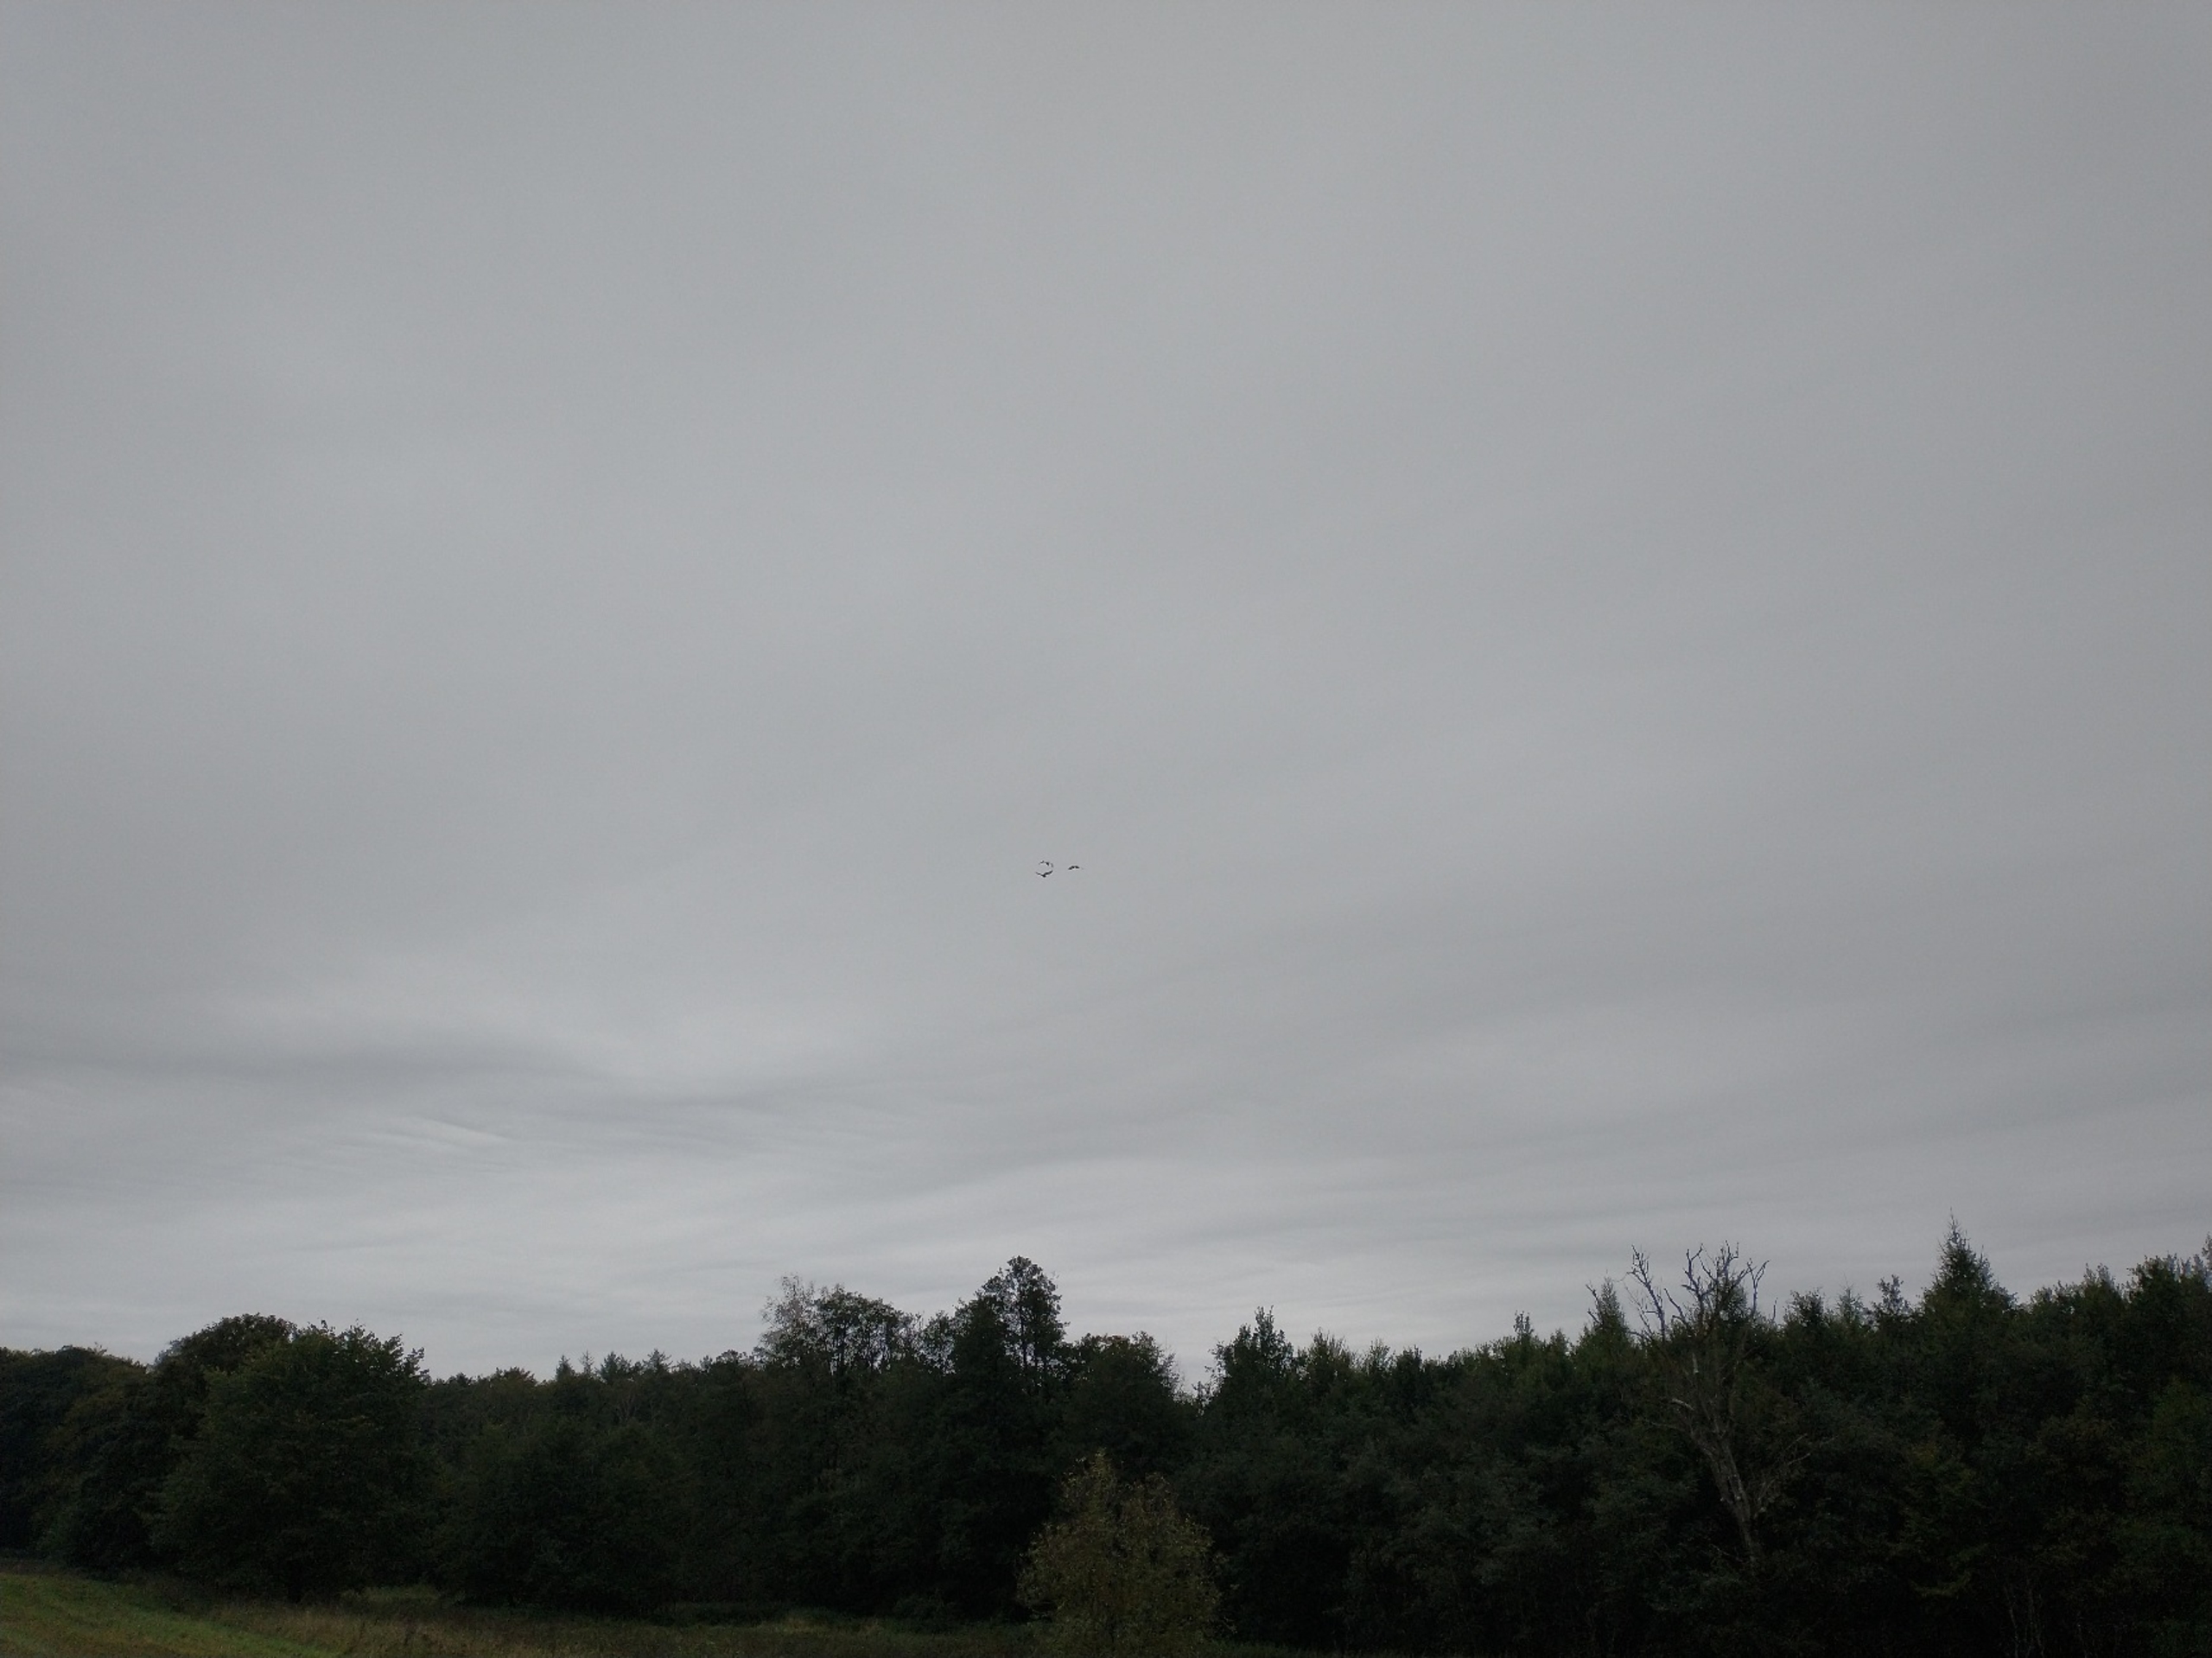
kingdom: Animalia
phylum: Chordata
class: Aves
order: Pelecaniformes
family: Ardeidae
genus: Ardea
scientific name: Ardea alba
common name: Sølvhejre
